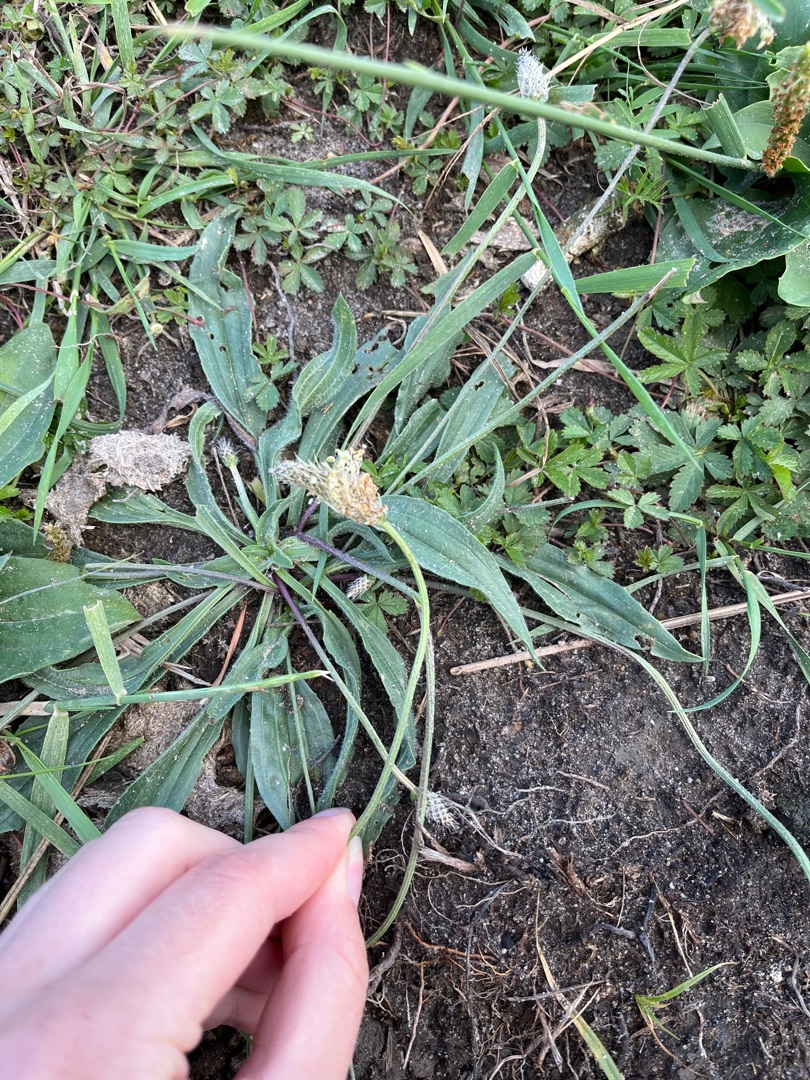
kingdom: Plantae
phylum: Tracheophyta
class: Magnoliopsida
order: Lamiales
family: Plantaginaceae
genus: Plantago
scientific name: Plantago lanceolata
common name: Lancet-vejbred
